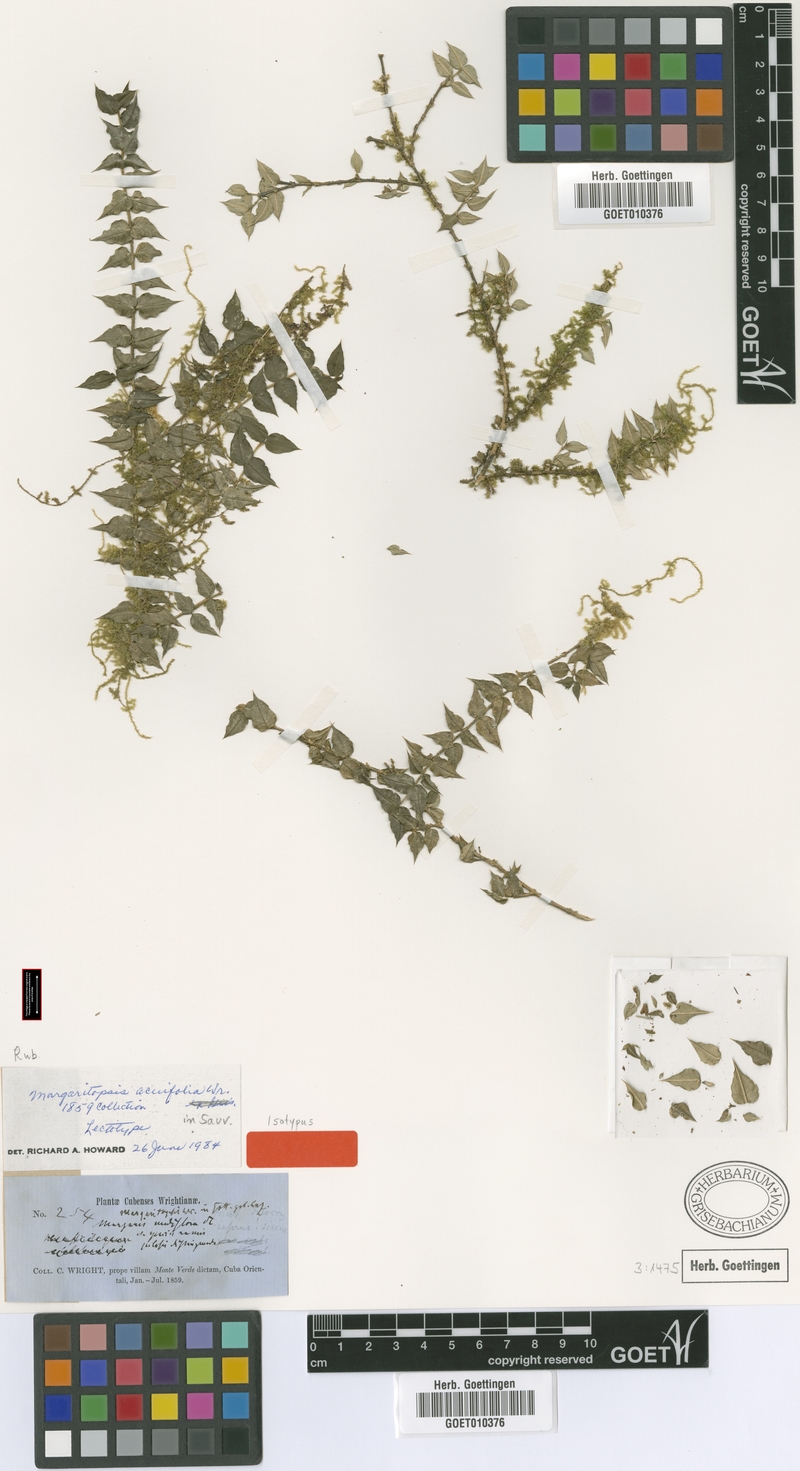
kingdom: Plantae
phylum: Tracheophyta
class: Magnoliopsida
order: Gentianales
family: Rubiaceae
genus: Eumachia
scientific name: Eumachia acuifolia
